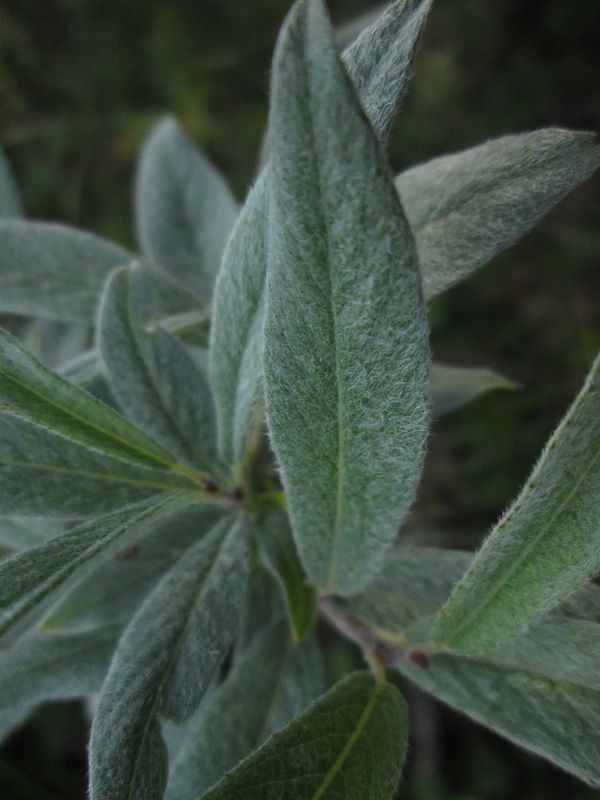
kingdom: Plantae
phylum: Tracheophyta
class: Magnoliopsida
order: Malpighiales
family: Salicaceae
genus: Salix
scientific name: Salix lapponum
